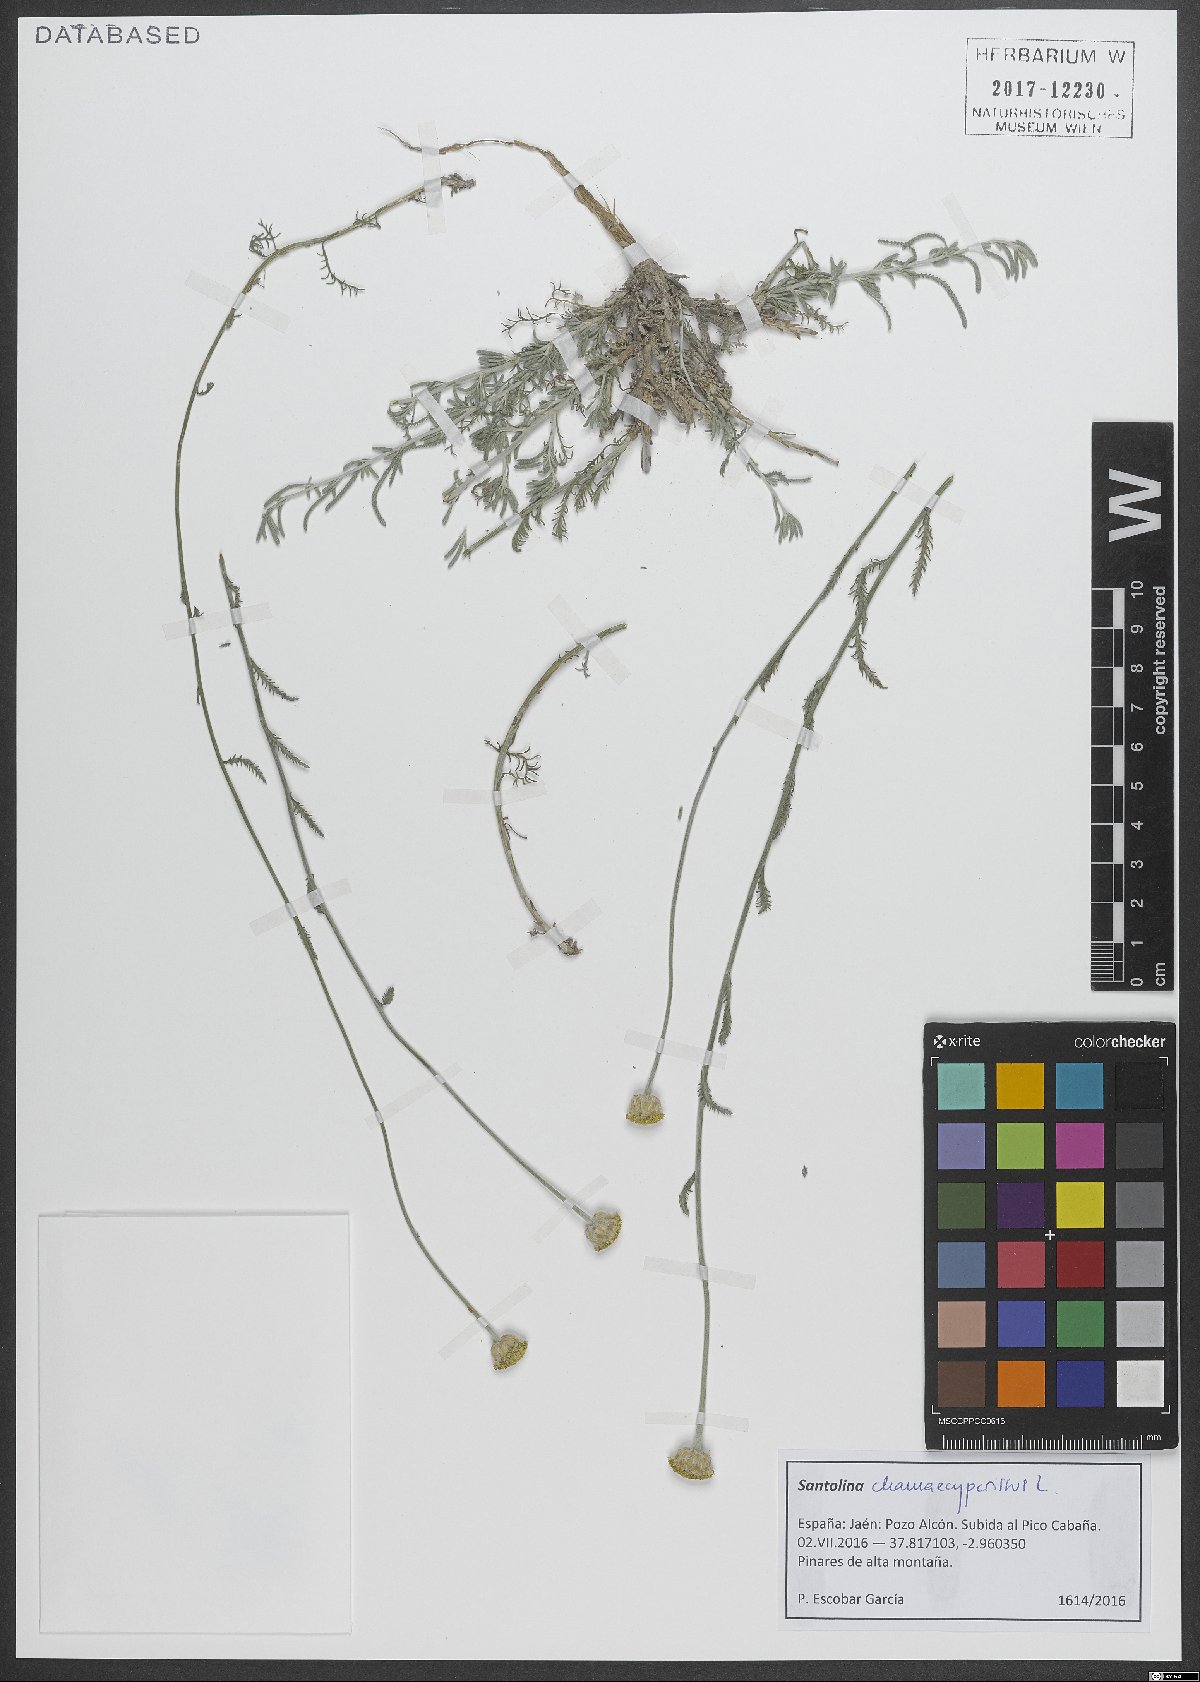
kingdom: Plantae
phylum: Tracheophyta
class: Magnoliopsida
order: Asterales
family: Asteraceae
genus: Santolina
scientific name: Santolina chamaecyparissus
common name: Lavender-cotton
